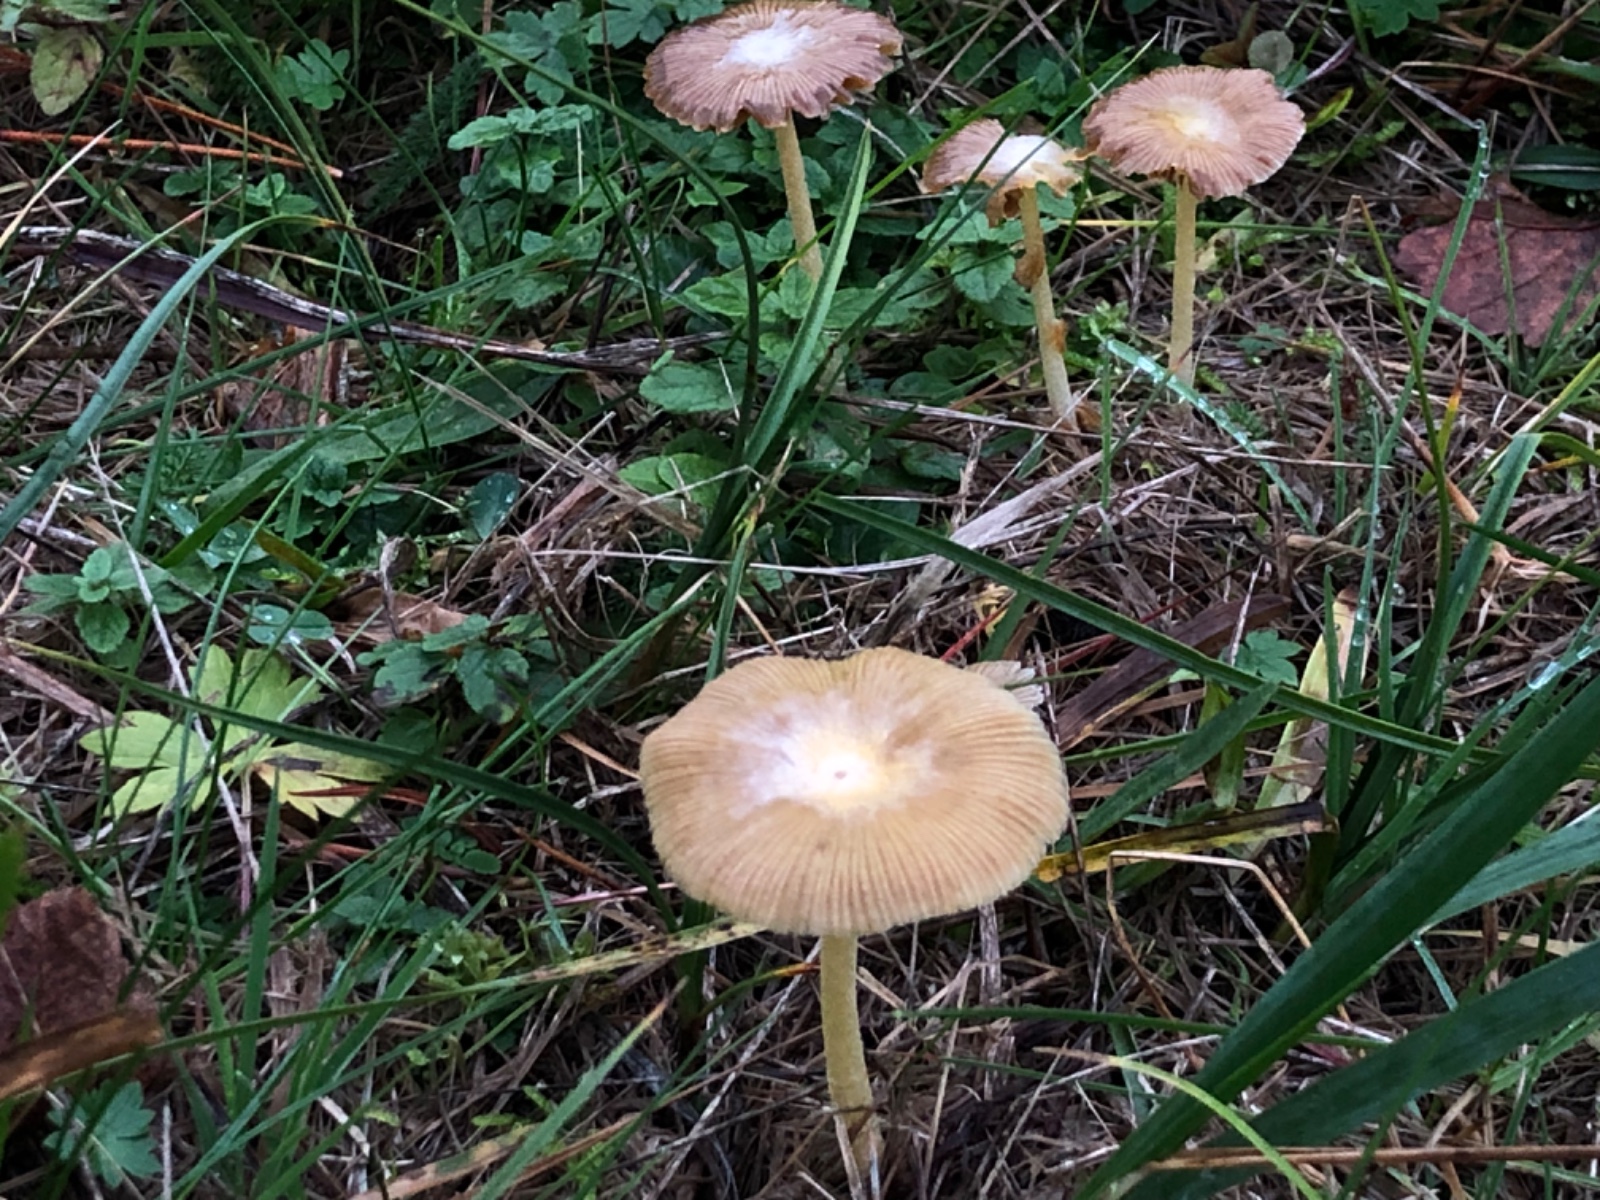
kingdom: Fungi
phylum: Basidiomycota
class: Agaricomycetes
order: Agaricales
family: Bolbitiaceae
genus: Bolbitius
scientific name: Bolbitius titubans
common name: almindelig gulhat
